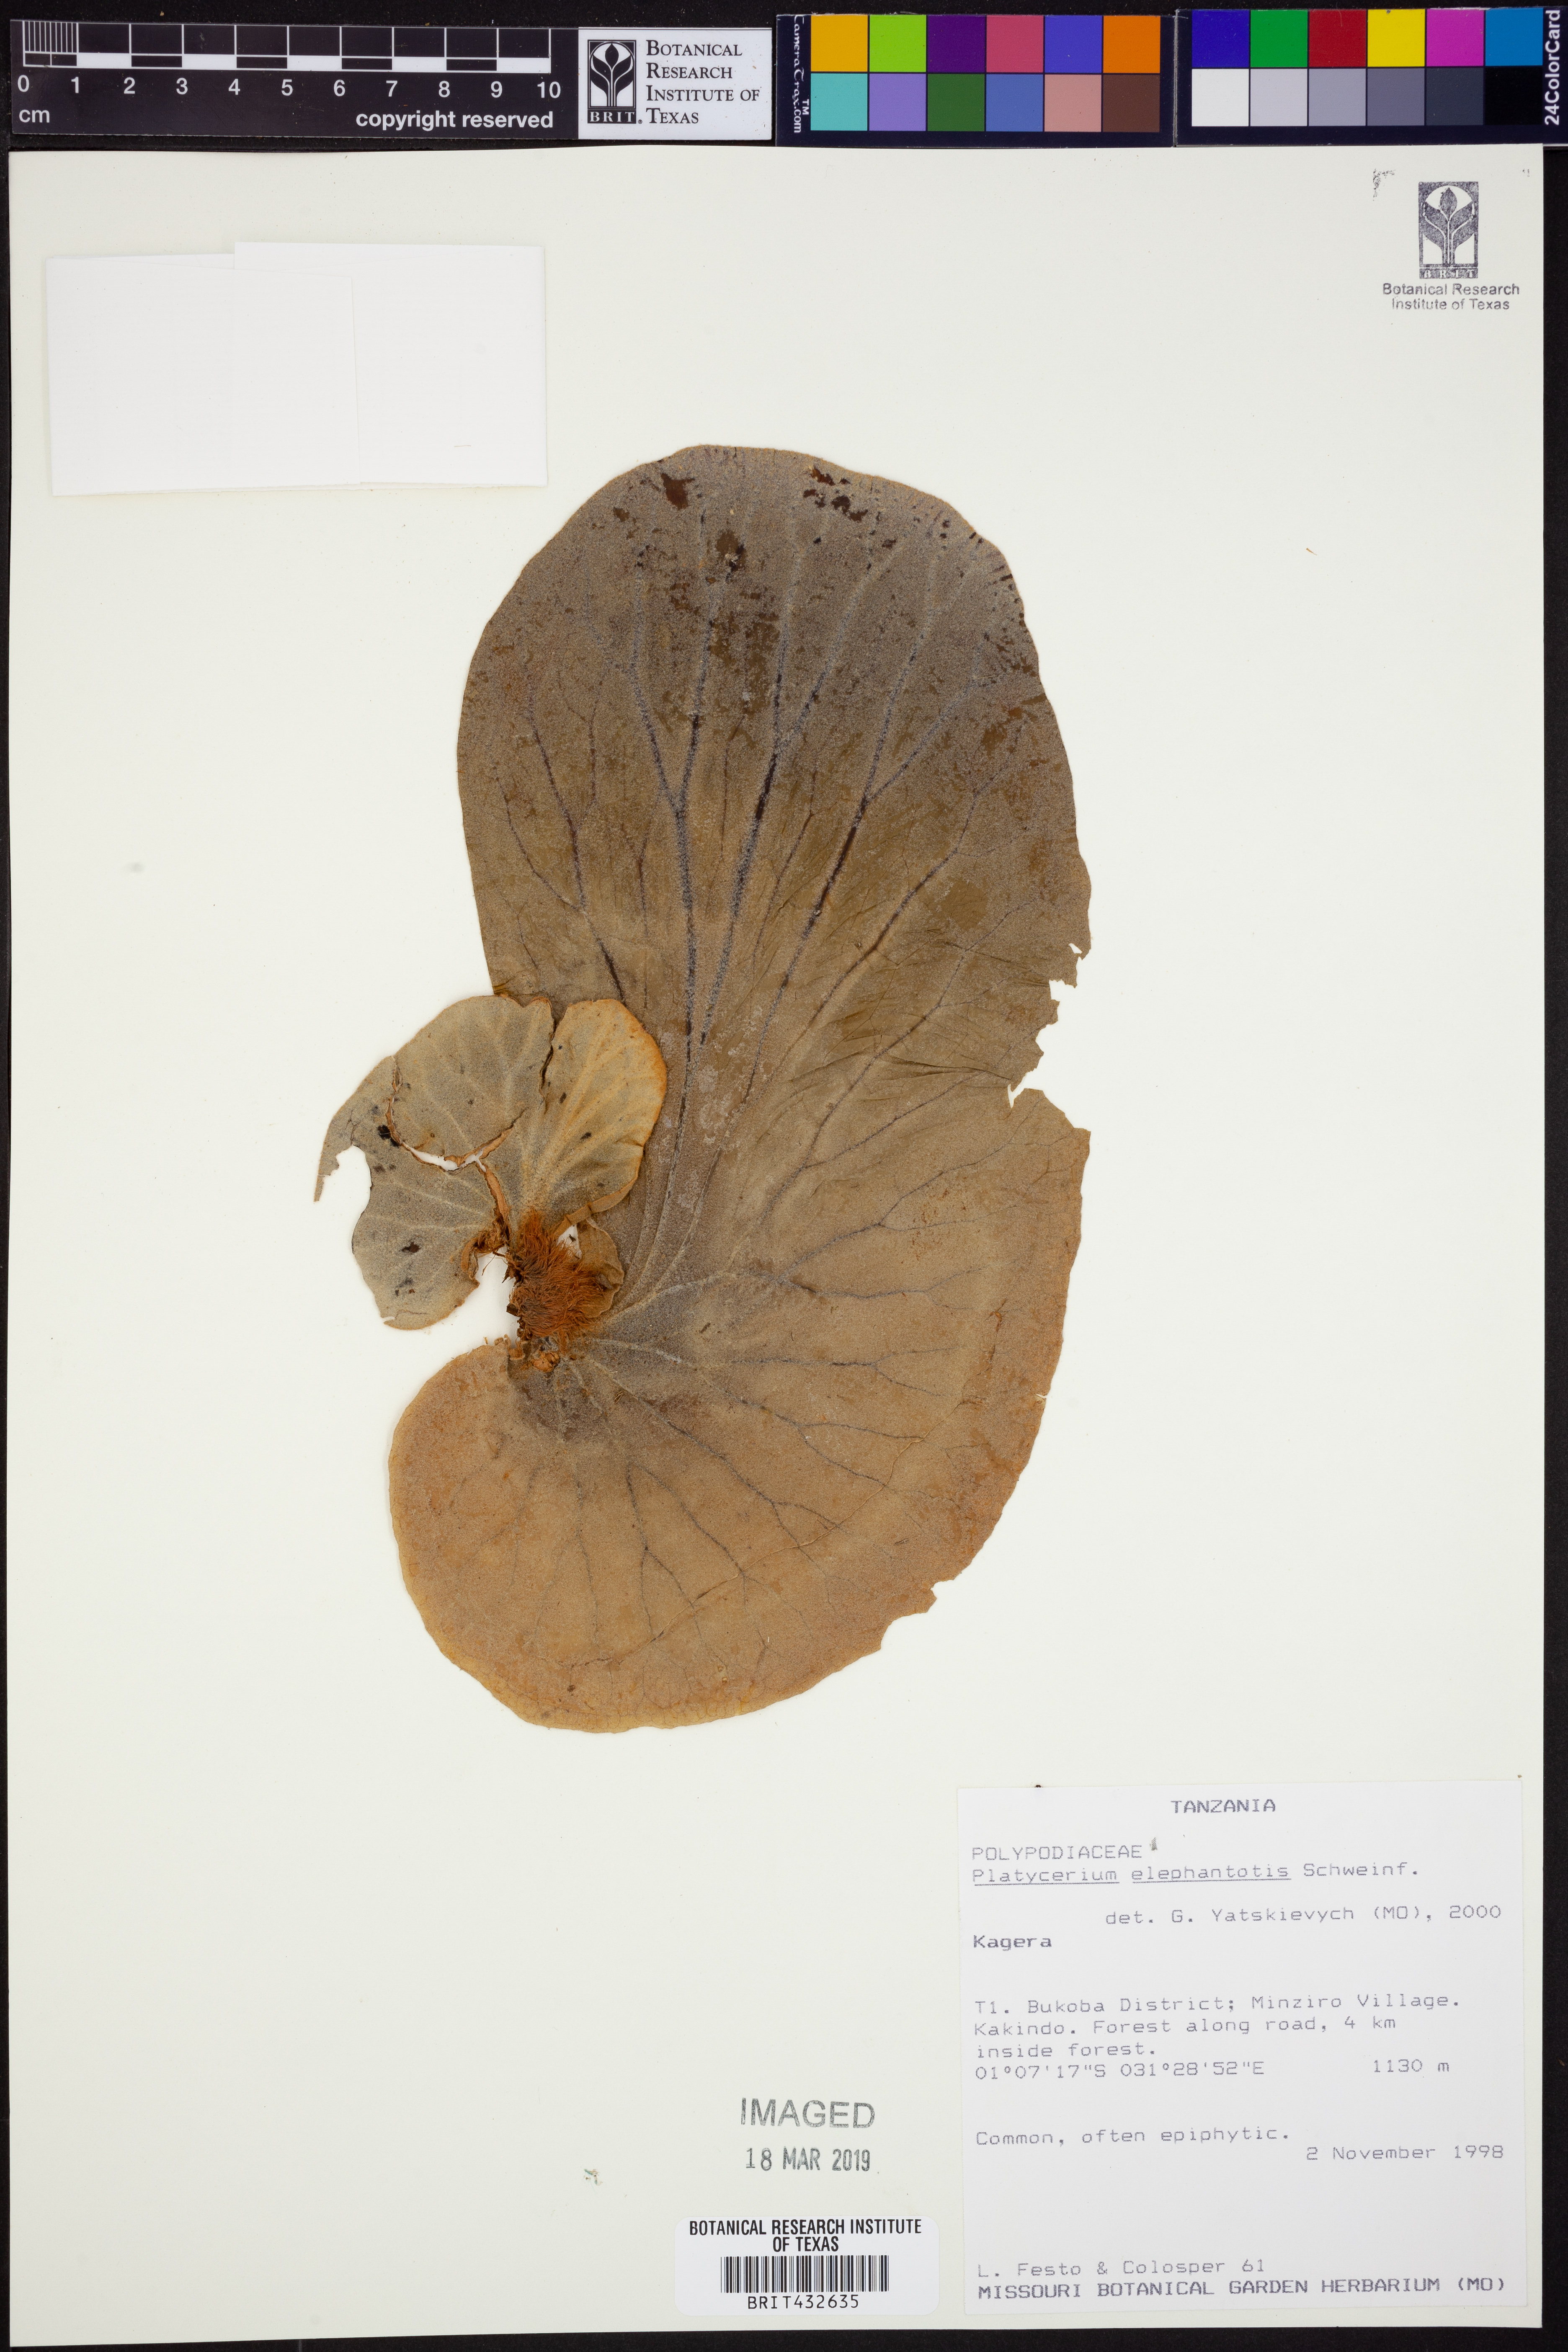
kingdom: Plantae
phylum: Tracheophyta
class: Polypodiopsida
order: Polypodiales
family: Polypodiaceae
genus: Platycerium
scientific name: Platycerium elephantotis
